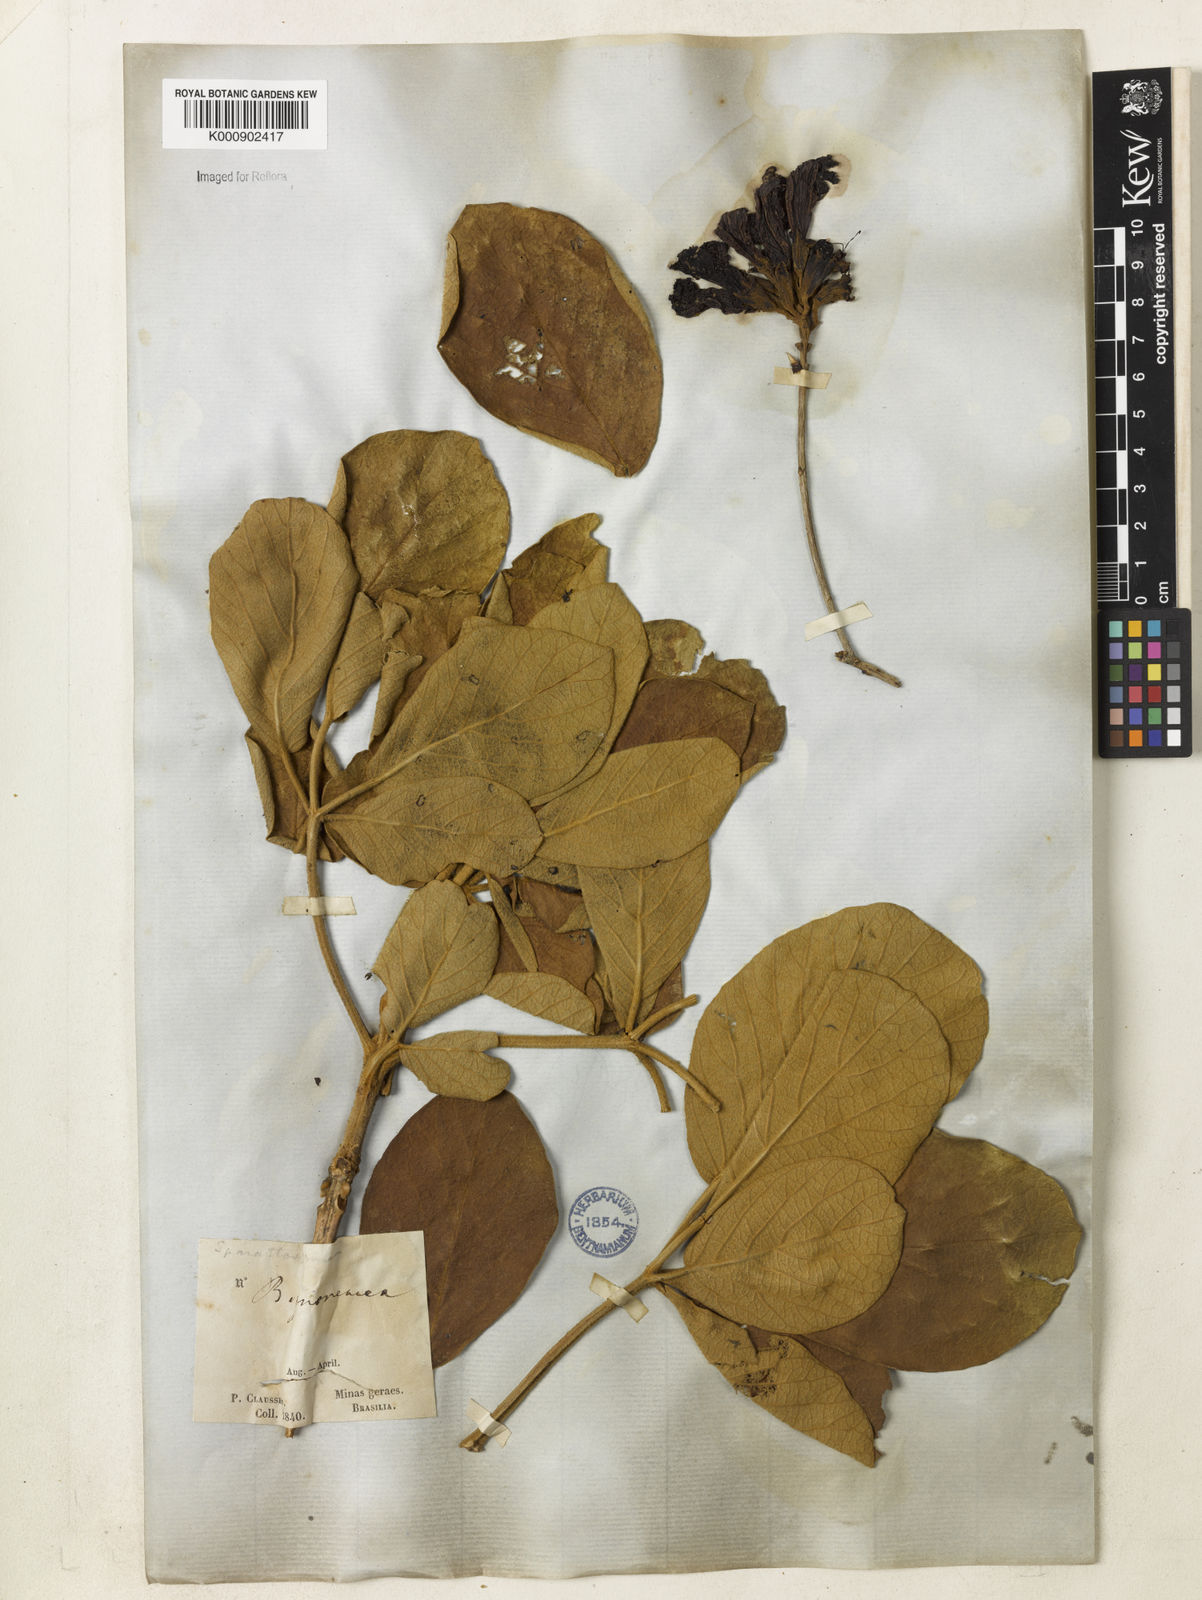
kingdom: Plantae
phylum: Tracheophyta
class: Magnoliopsida
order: Lamiales
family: Bignoniaceae
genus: Handroanthus
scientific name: Handroanthus ochraceus
